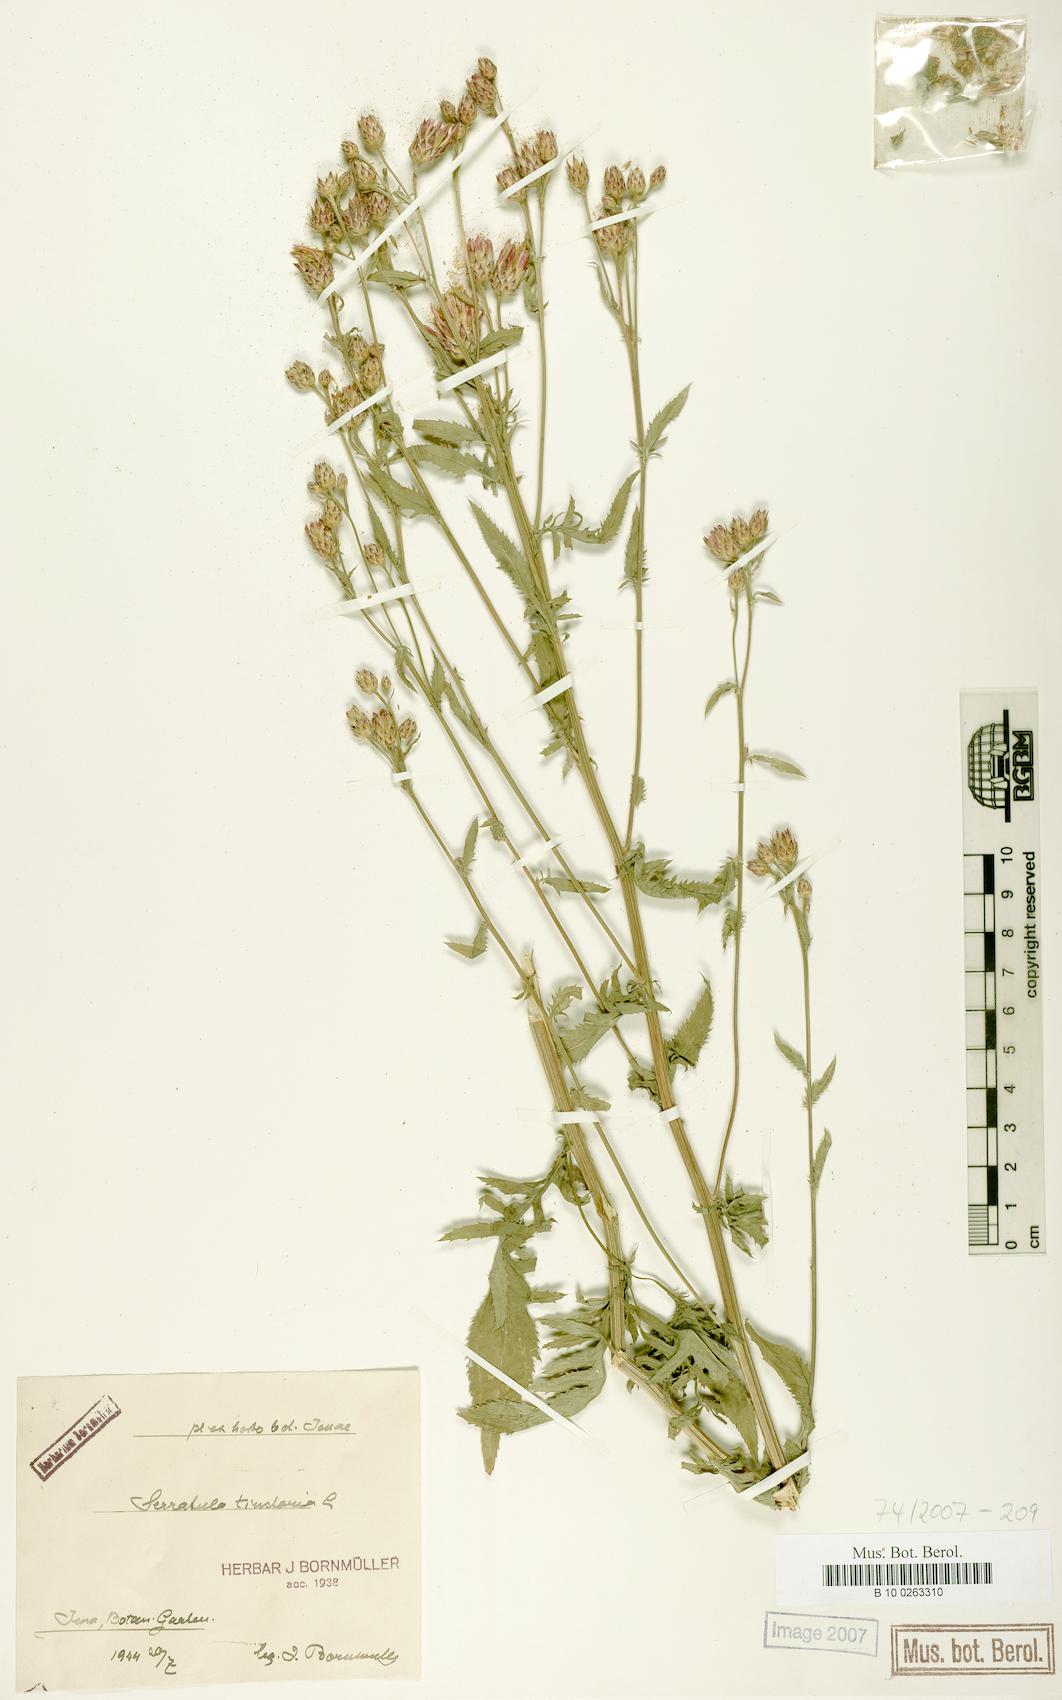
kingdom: Plantae
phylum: Tracheophyta
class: Magnoliopsida
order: Asterales
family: Asteraceae
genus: Serratula
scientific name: Serratula tinctoria
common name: Saw-wort
